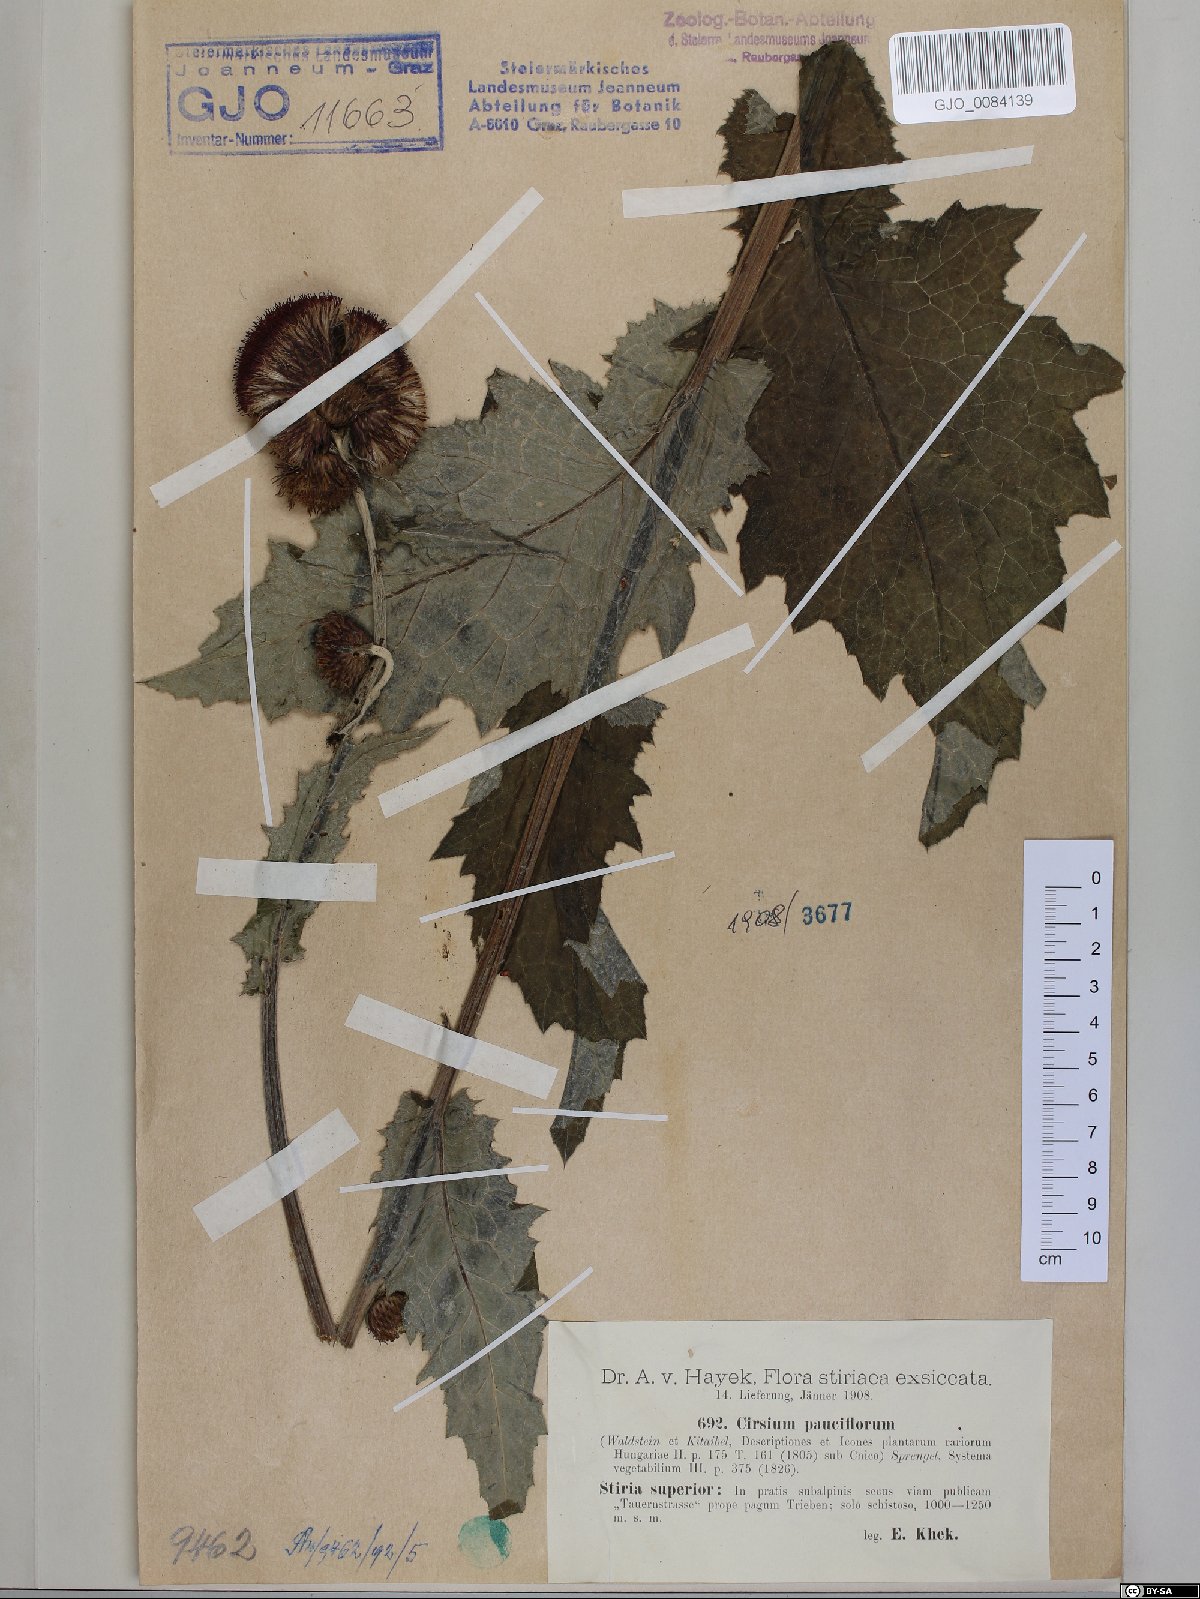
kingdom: Plantae
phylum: Tracheophyta
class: Magnoliopsida
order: Asterales
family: Asteraceae
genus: Cirsium
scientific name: Cirsium greimleri
